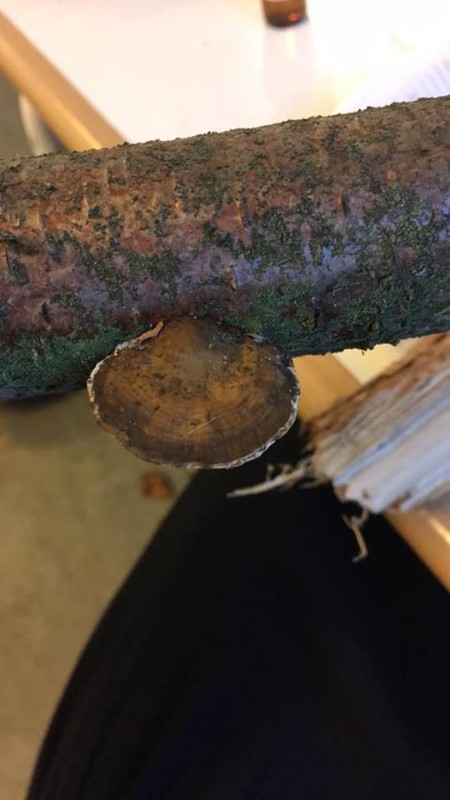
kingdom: Fungi
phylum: Basidiomycota
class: Agaricomycetes
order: Polyporales
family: Polyporaceae
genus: Daedaleopsis
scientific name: Daedaleopsis confragosa
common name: rødmende læderporesvamp
